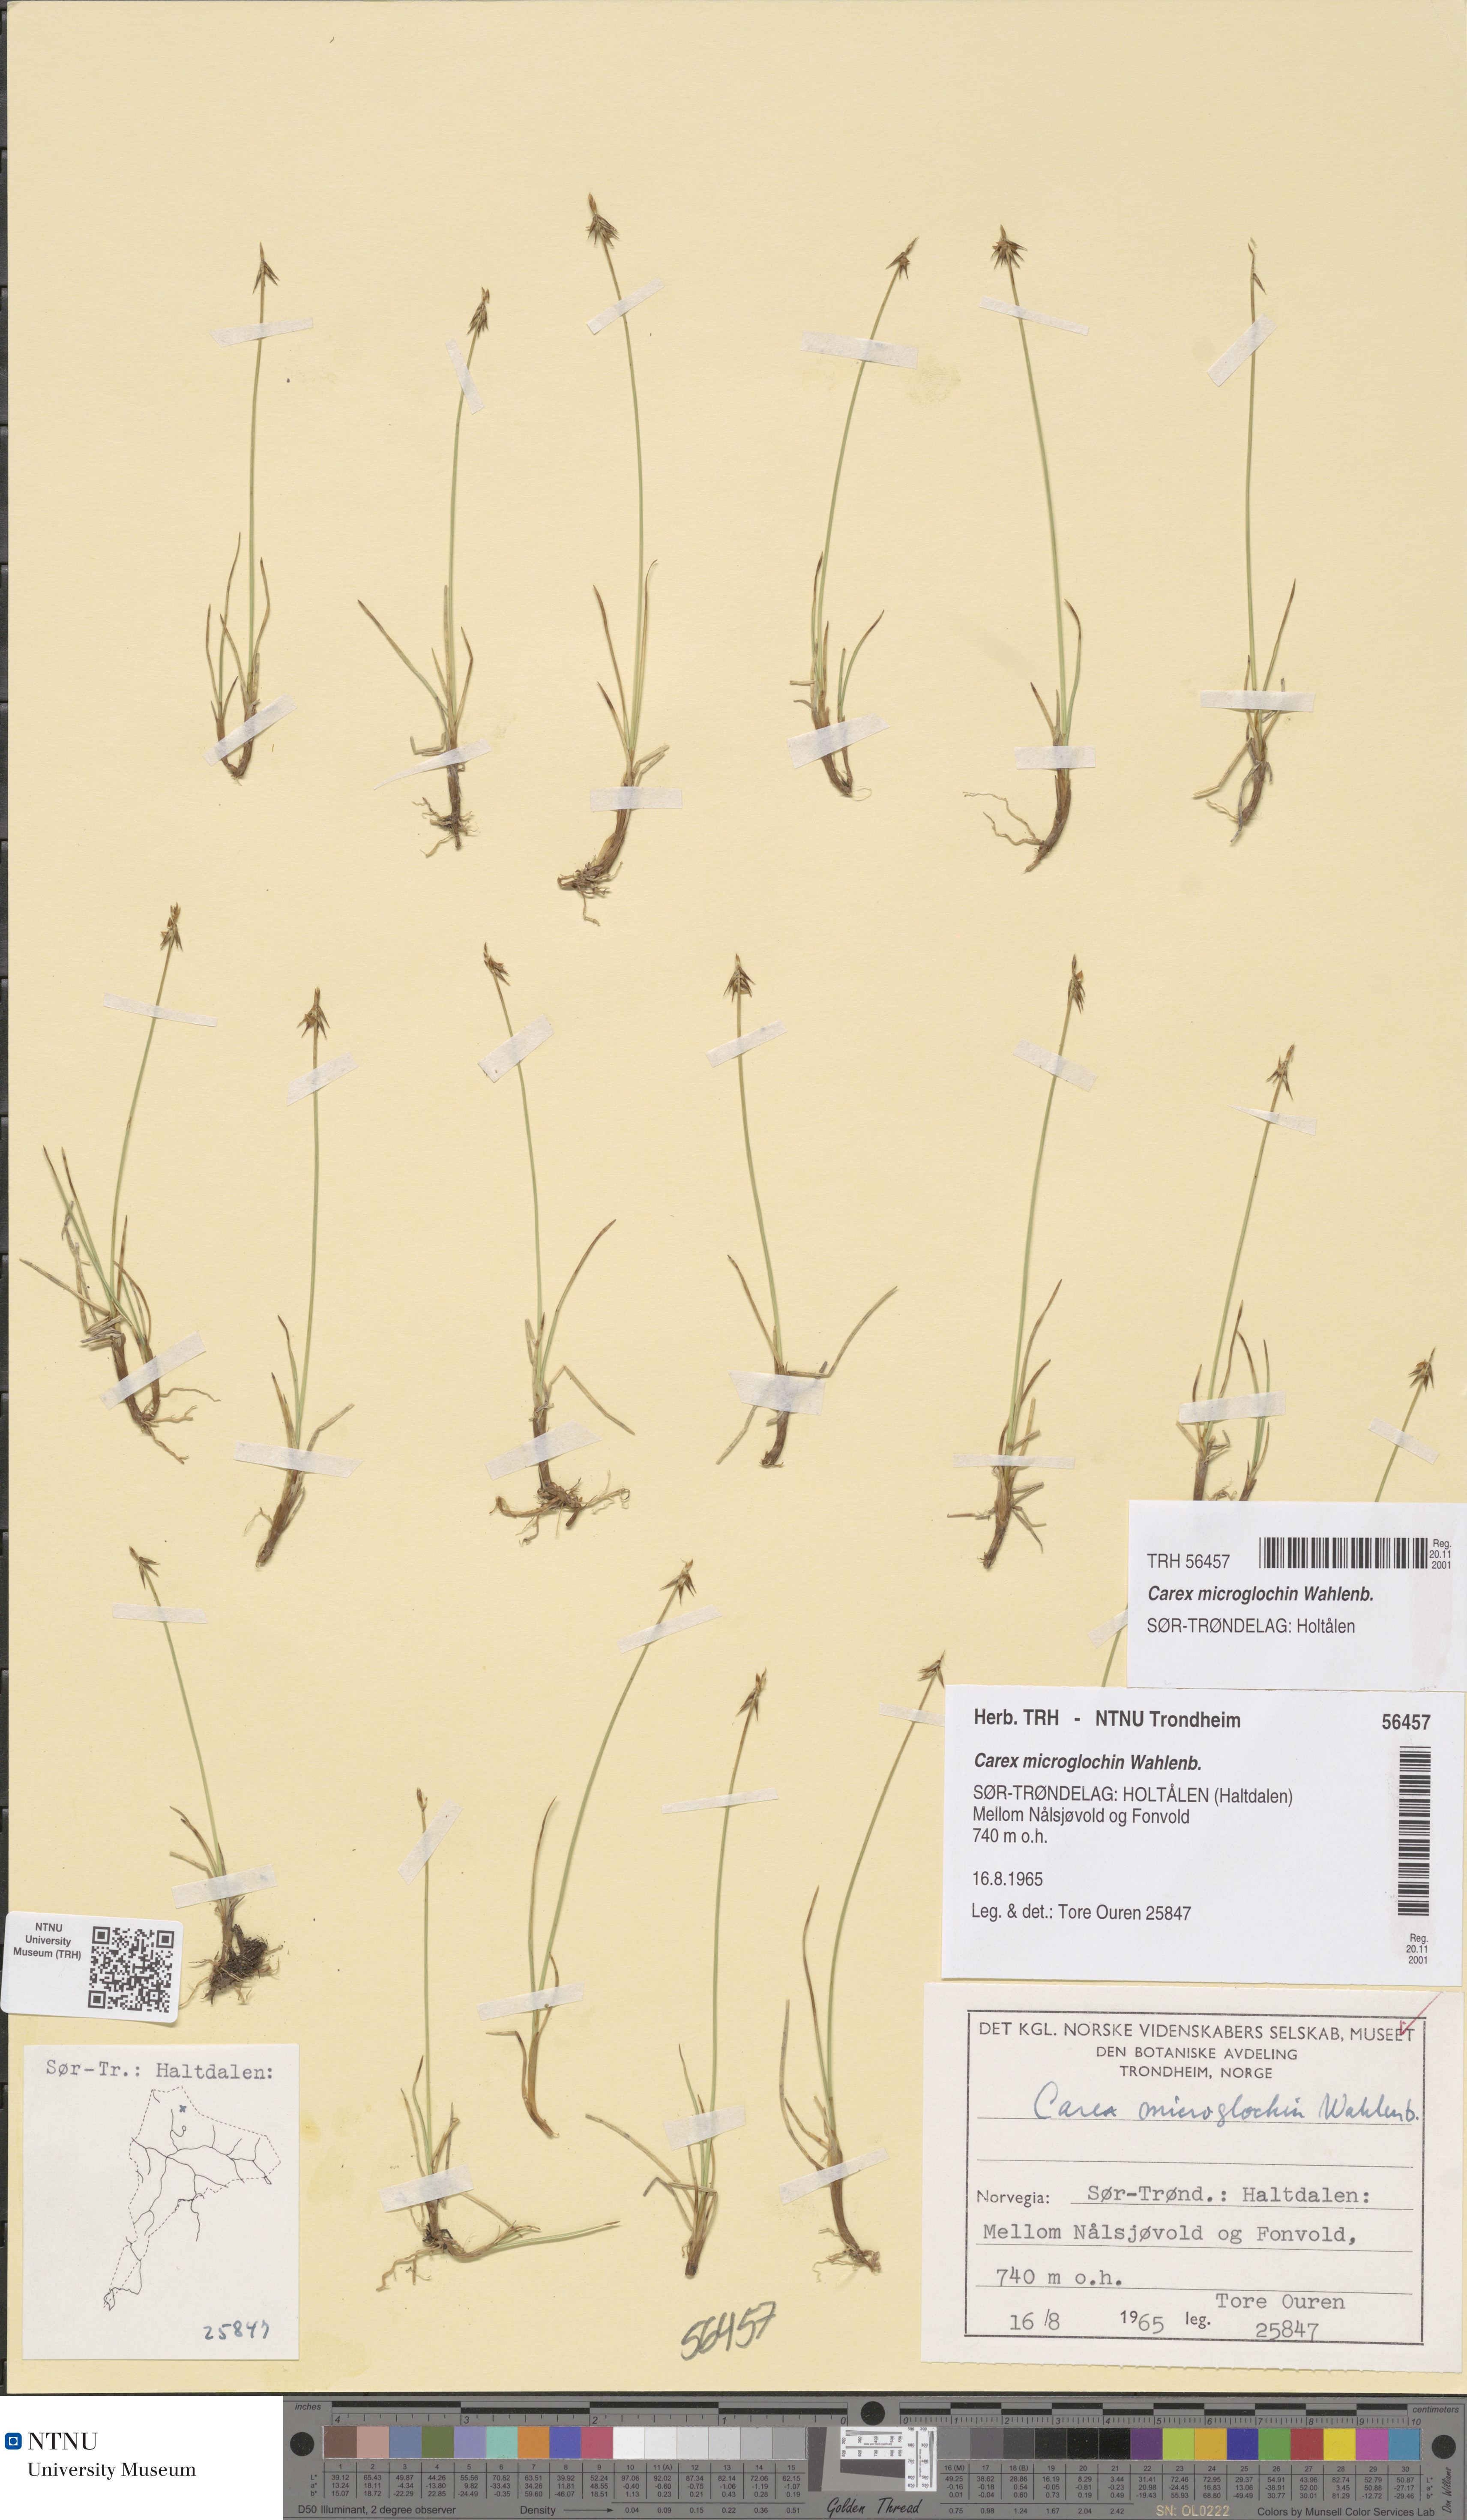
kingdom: Plantae
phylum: Tracheophyta
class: Liliopsida
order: Poales
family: Cyperaceae
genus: Carex
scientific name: Carex microglochin
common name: Bristle sedge
